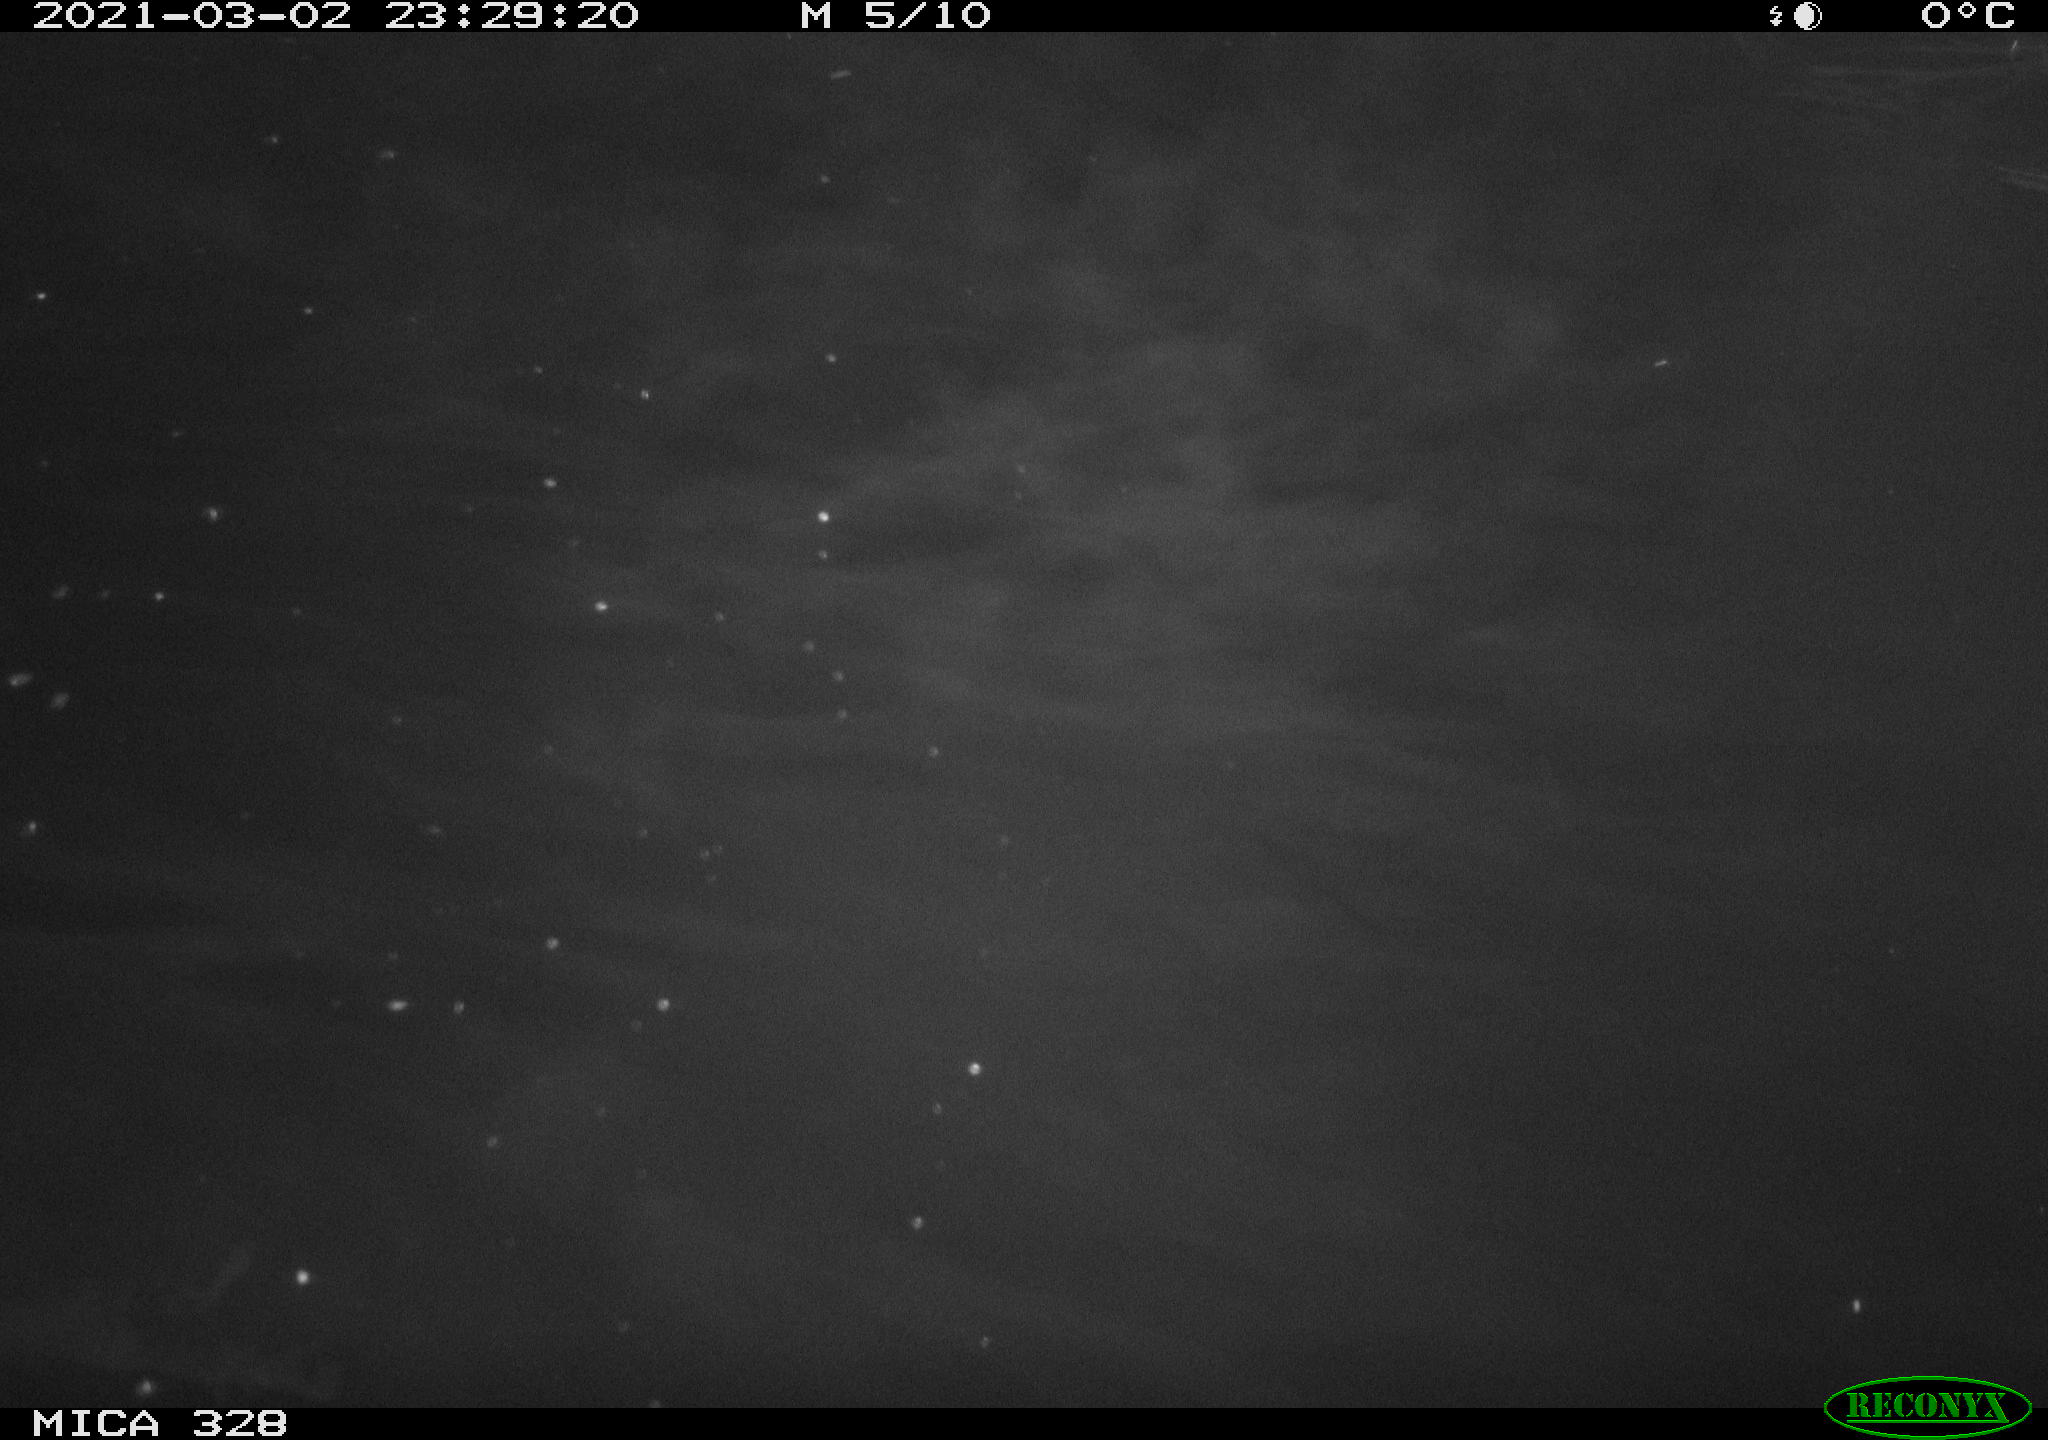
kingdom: Animalia
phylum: Chordata
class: Mammalia
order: Rodentia
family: Cricetidae
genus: Ondatra
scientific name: Ondatra zibethicus
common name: Muskrat
